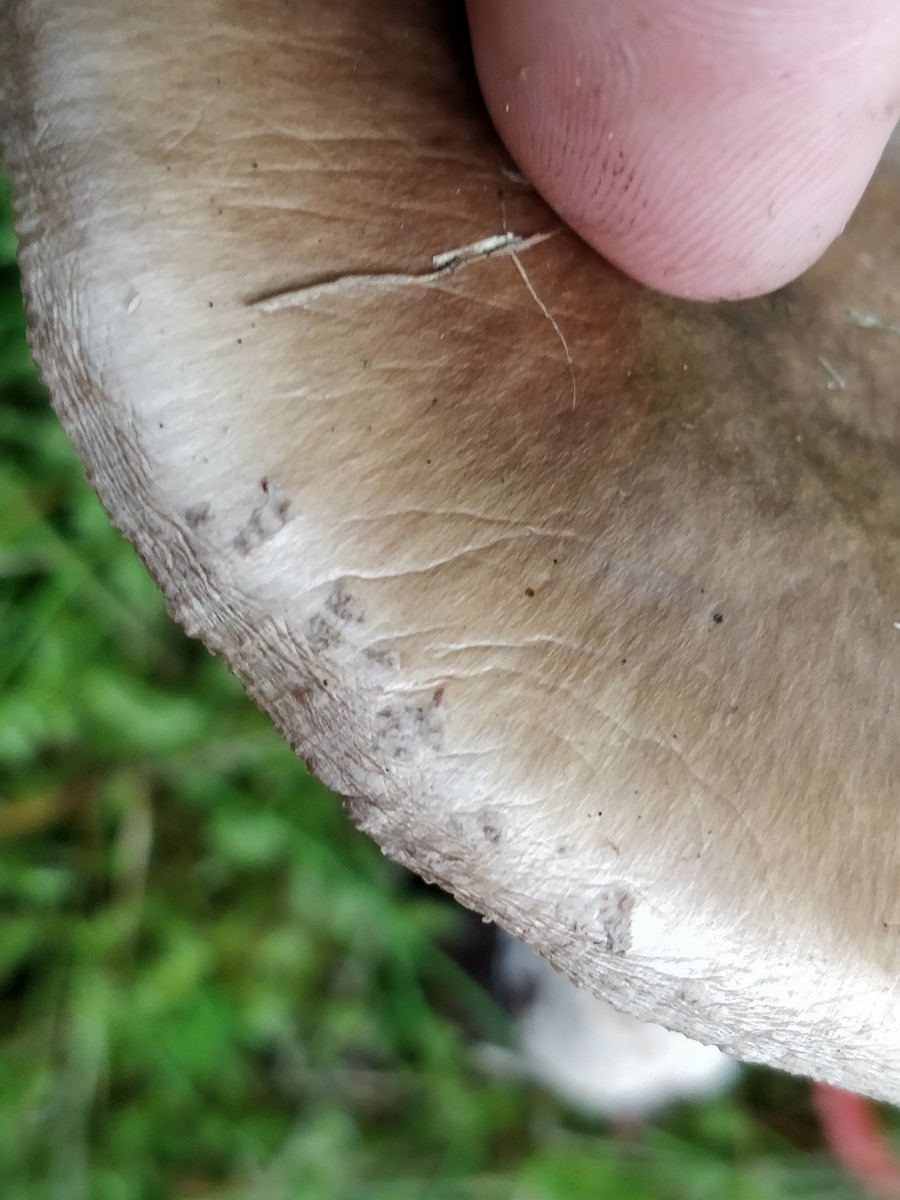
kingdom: Fungi
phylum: Basidiomycota
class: Agaricomycetes
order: Agaricales
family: Amanitaceae
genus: Amanita
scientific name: Amanita rubescens
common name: rødmende fluesvamp
